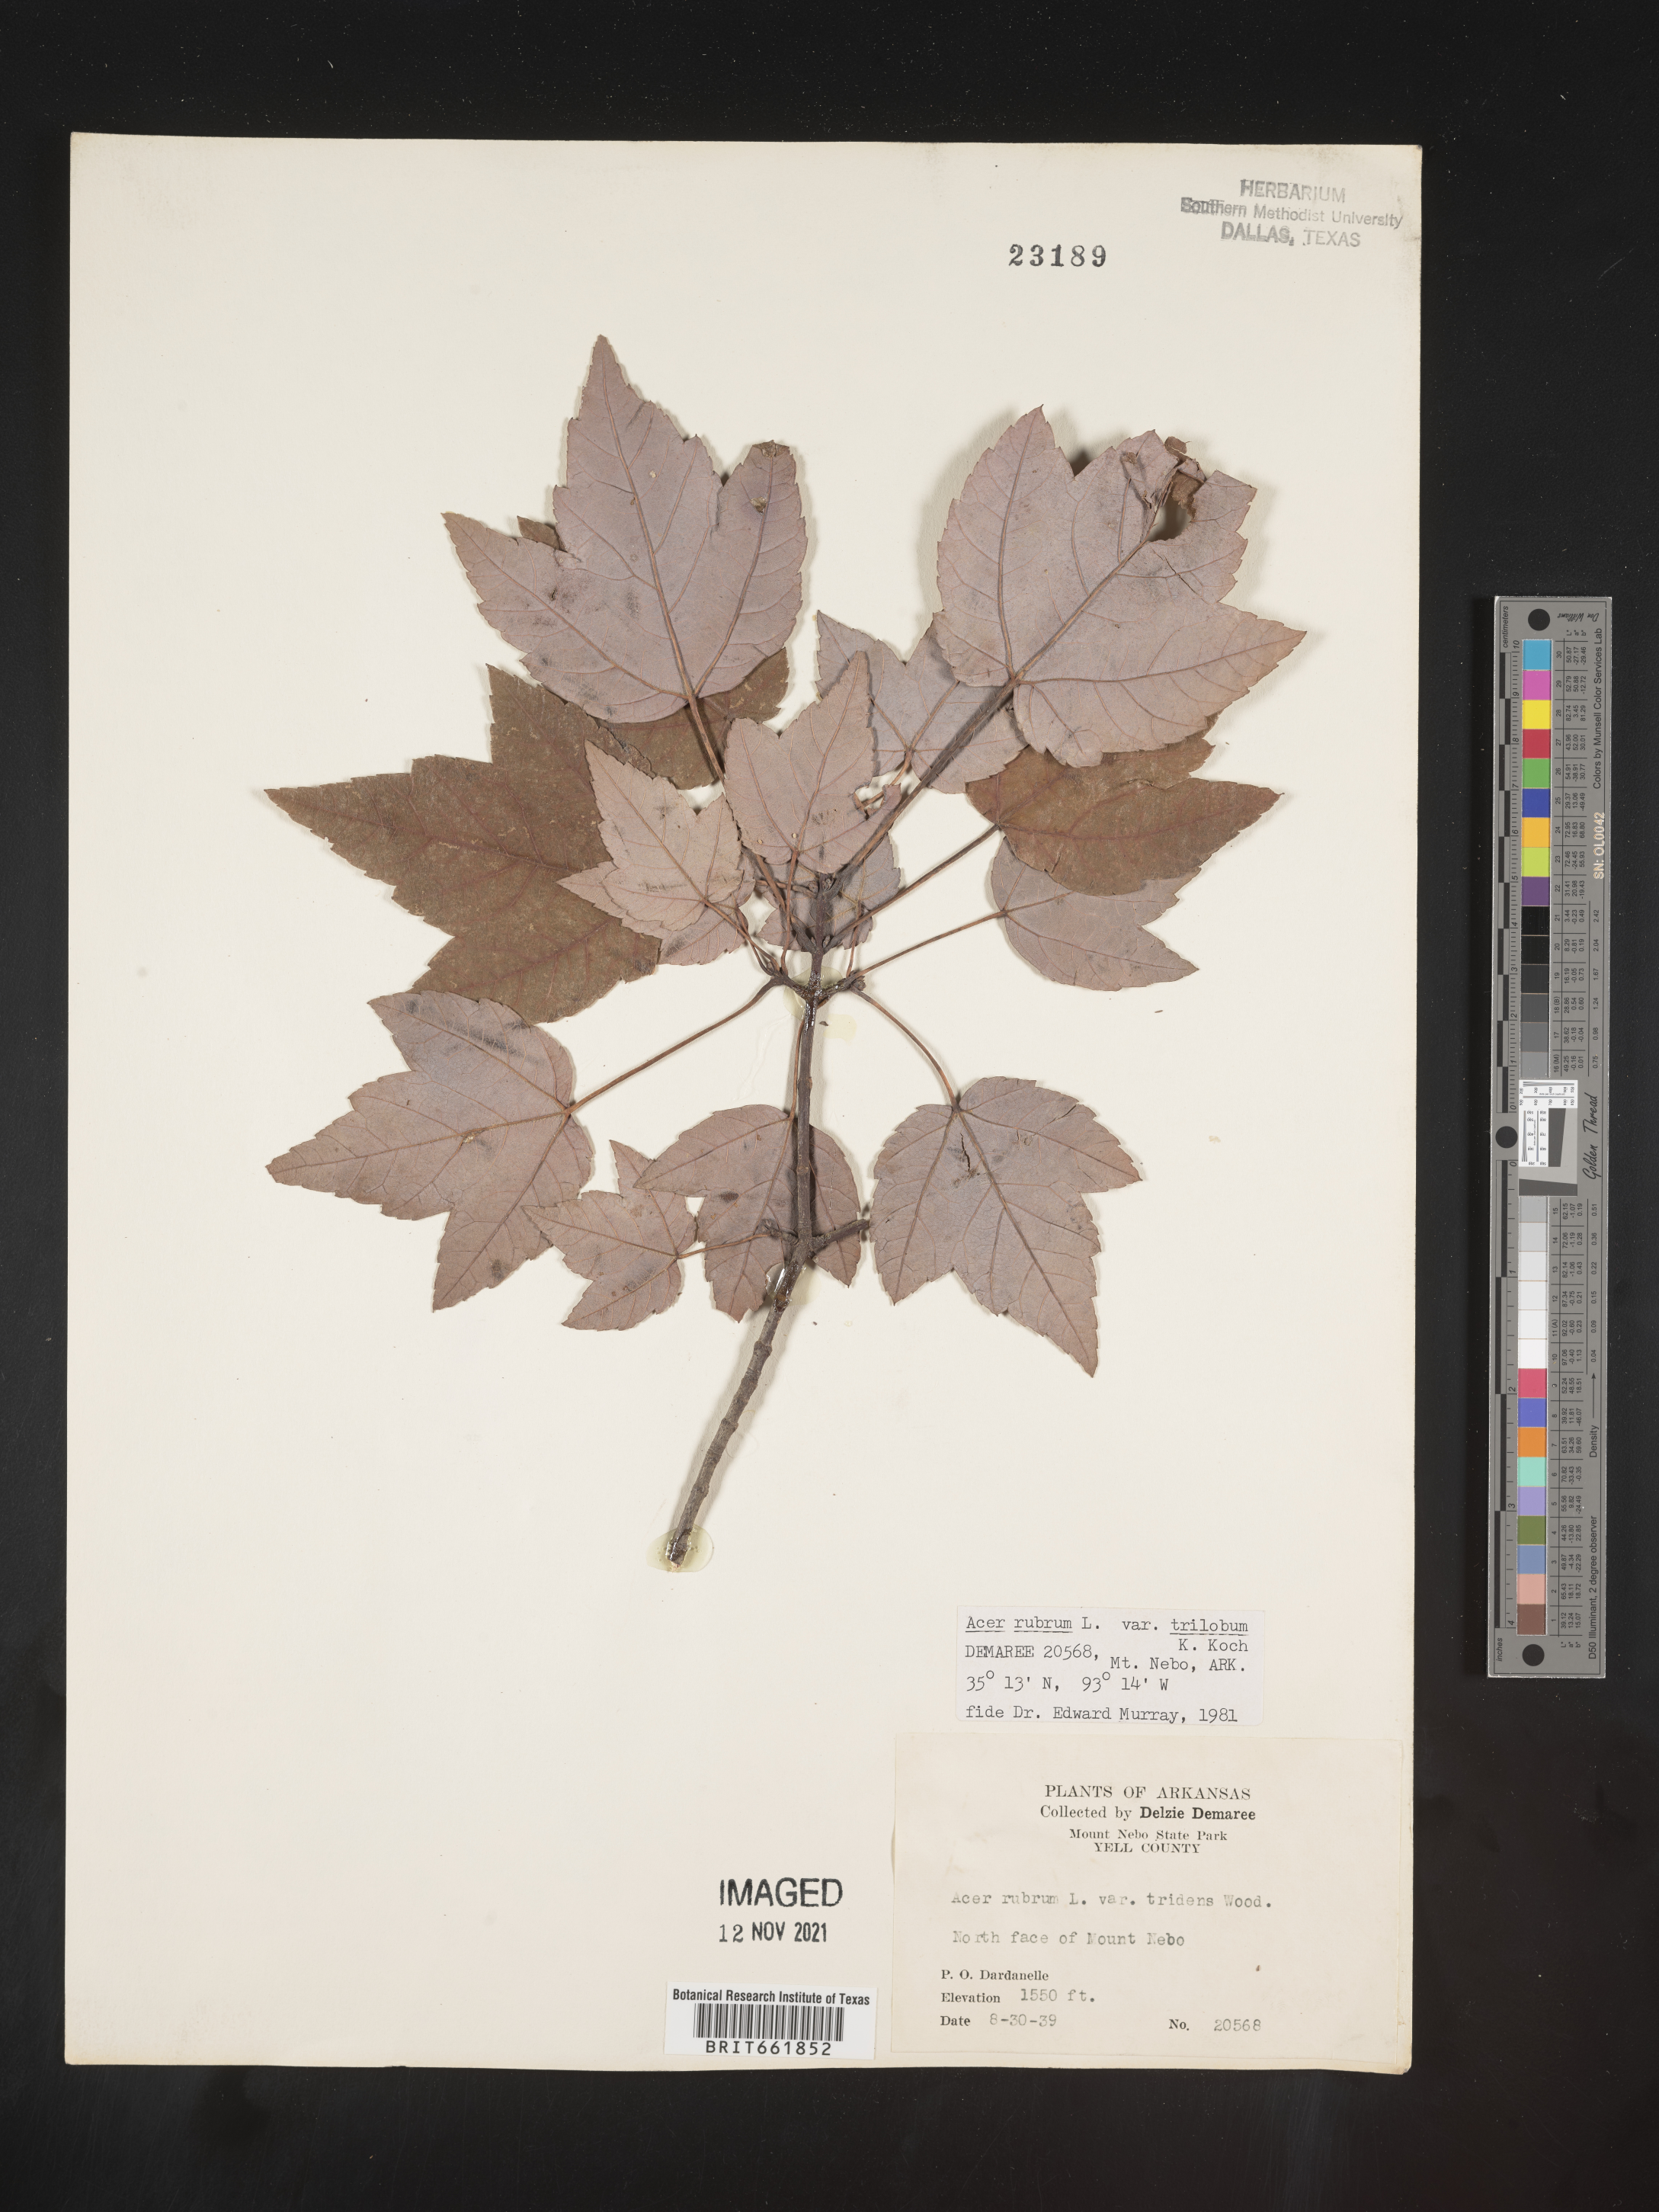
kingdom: Plantae
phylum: Tracheophyta
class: Magnoliopsida
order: Sapindales
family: Sapindaceae
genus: Acer
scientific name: Acer rubrum
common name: Red maple
